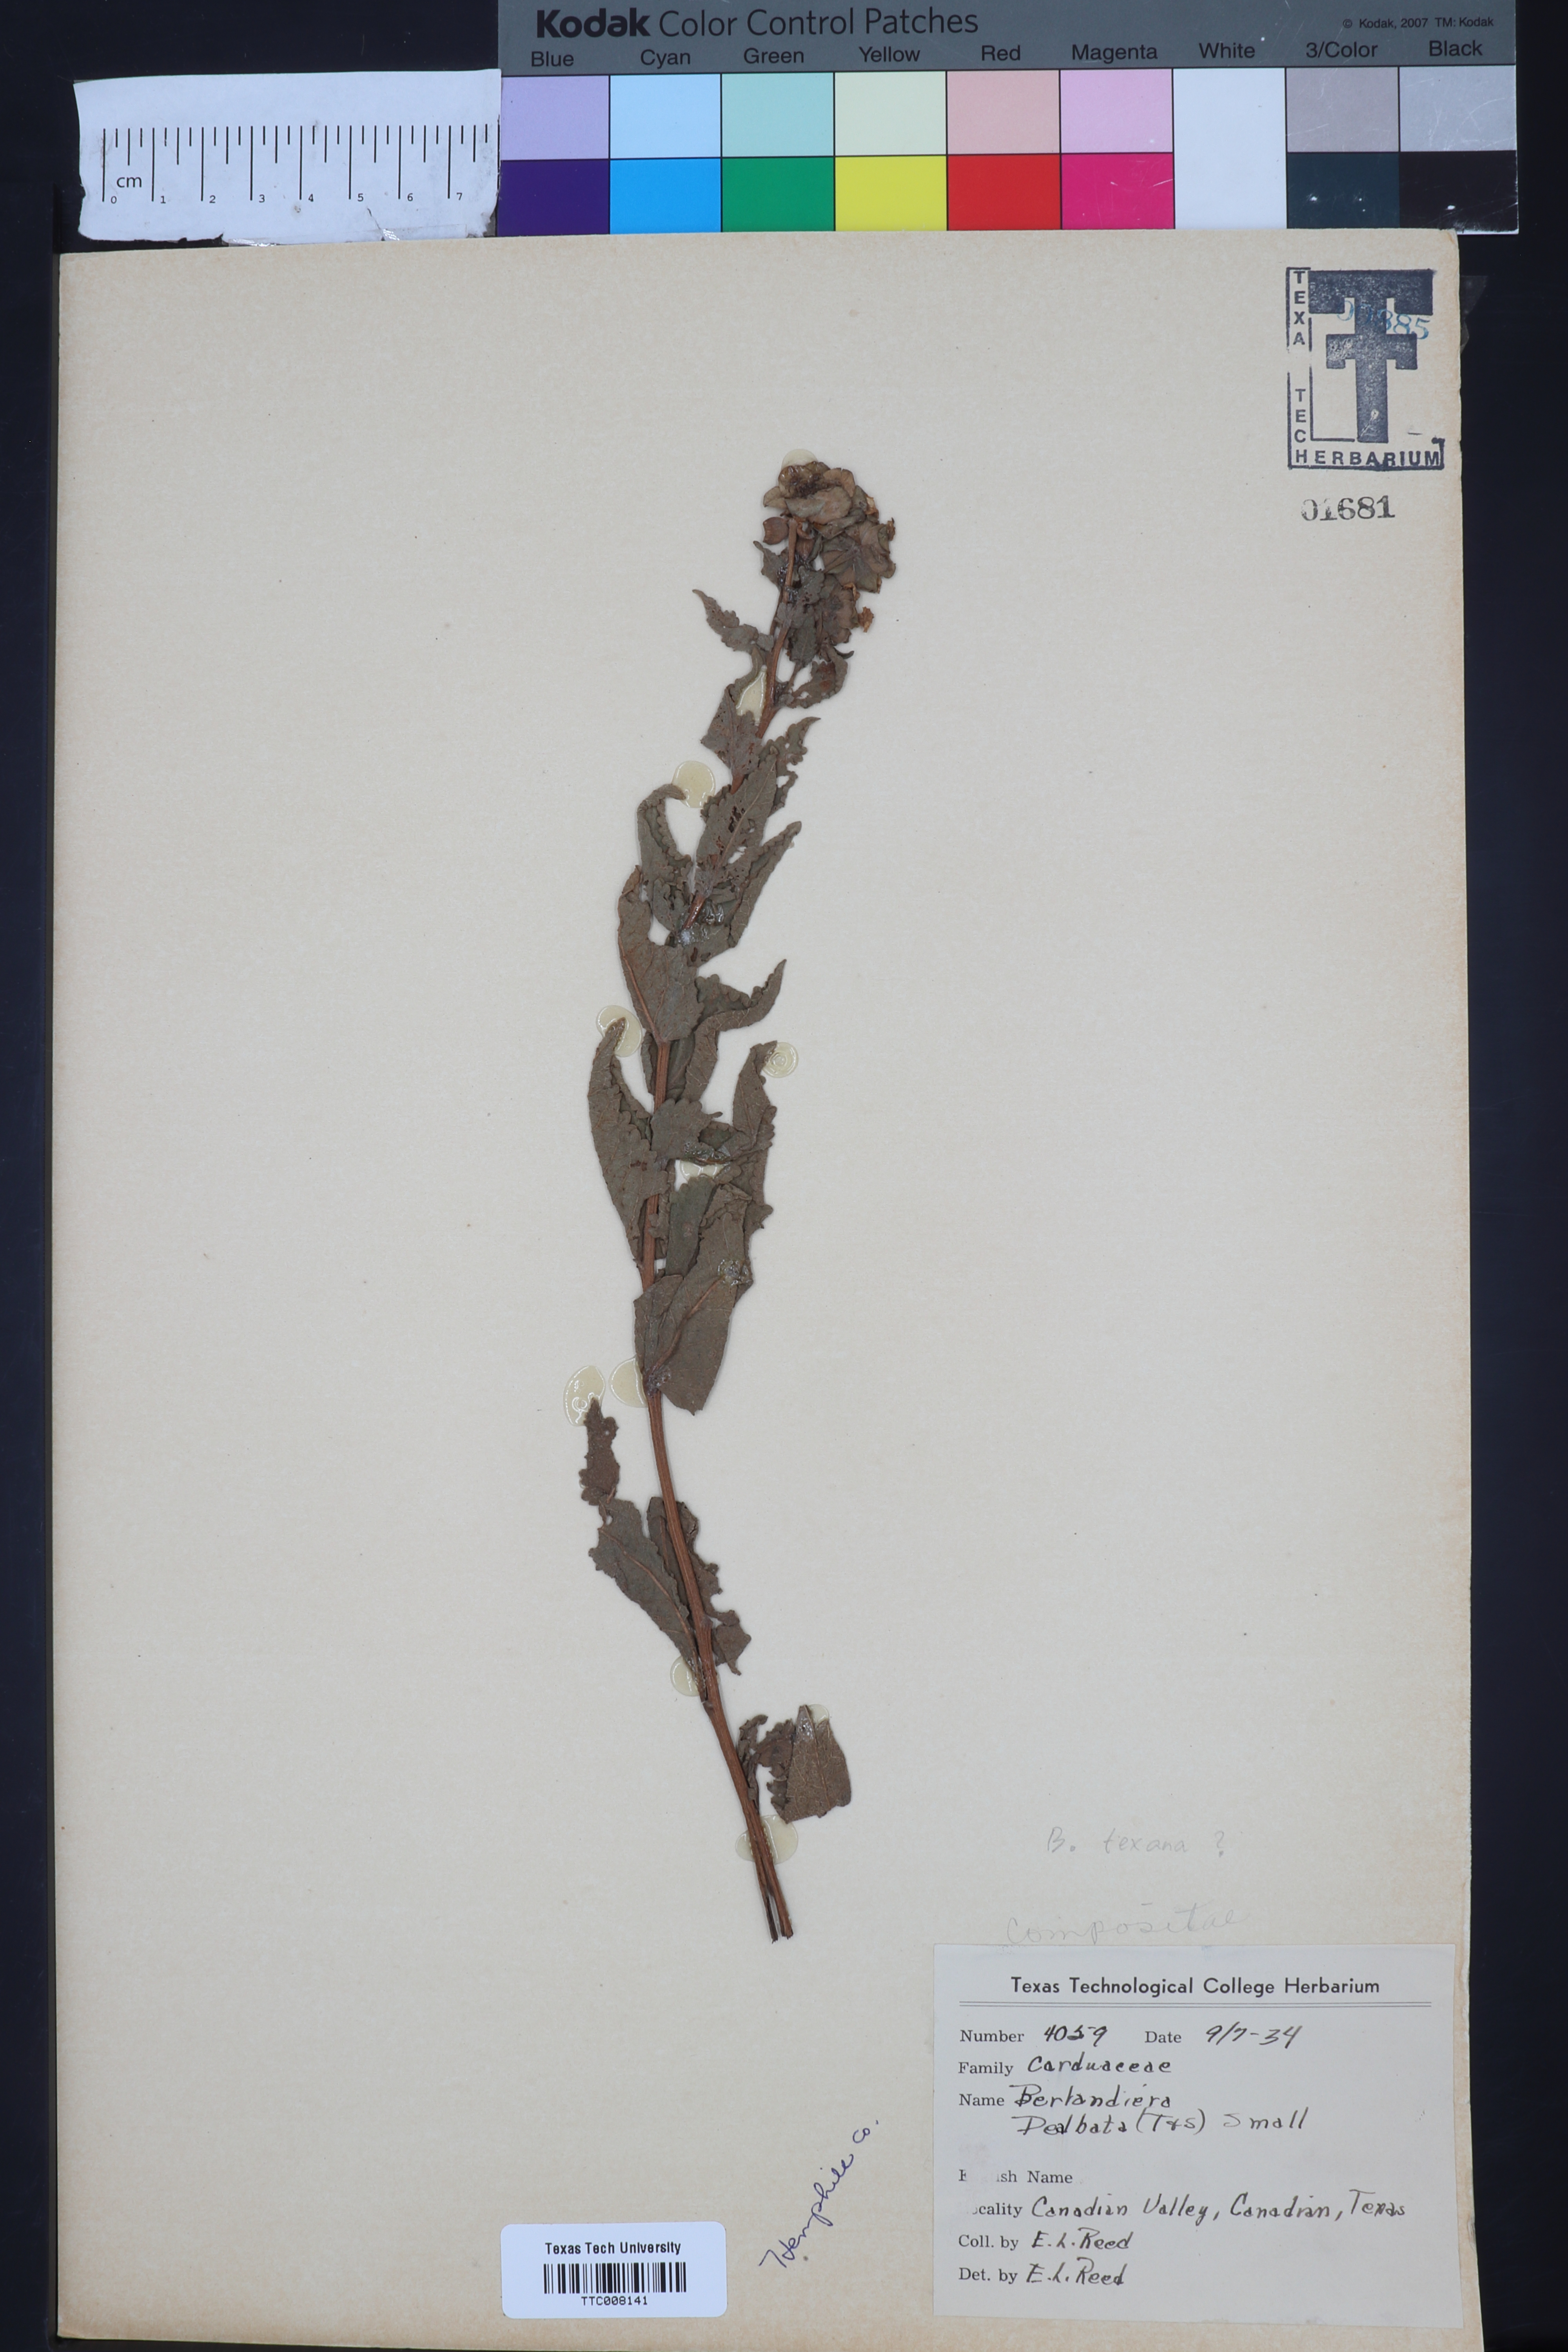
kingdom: Plantae
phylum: Tracheophyta
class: Magnoliopsida
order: Asterales
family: Asteraceae
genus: Berlandiera
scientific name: Berlandiera texana
